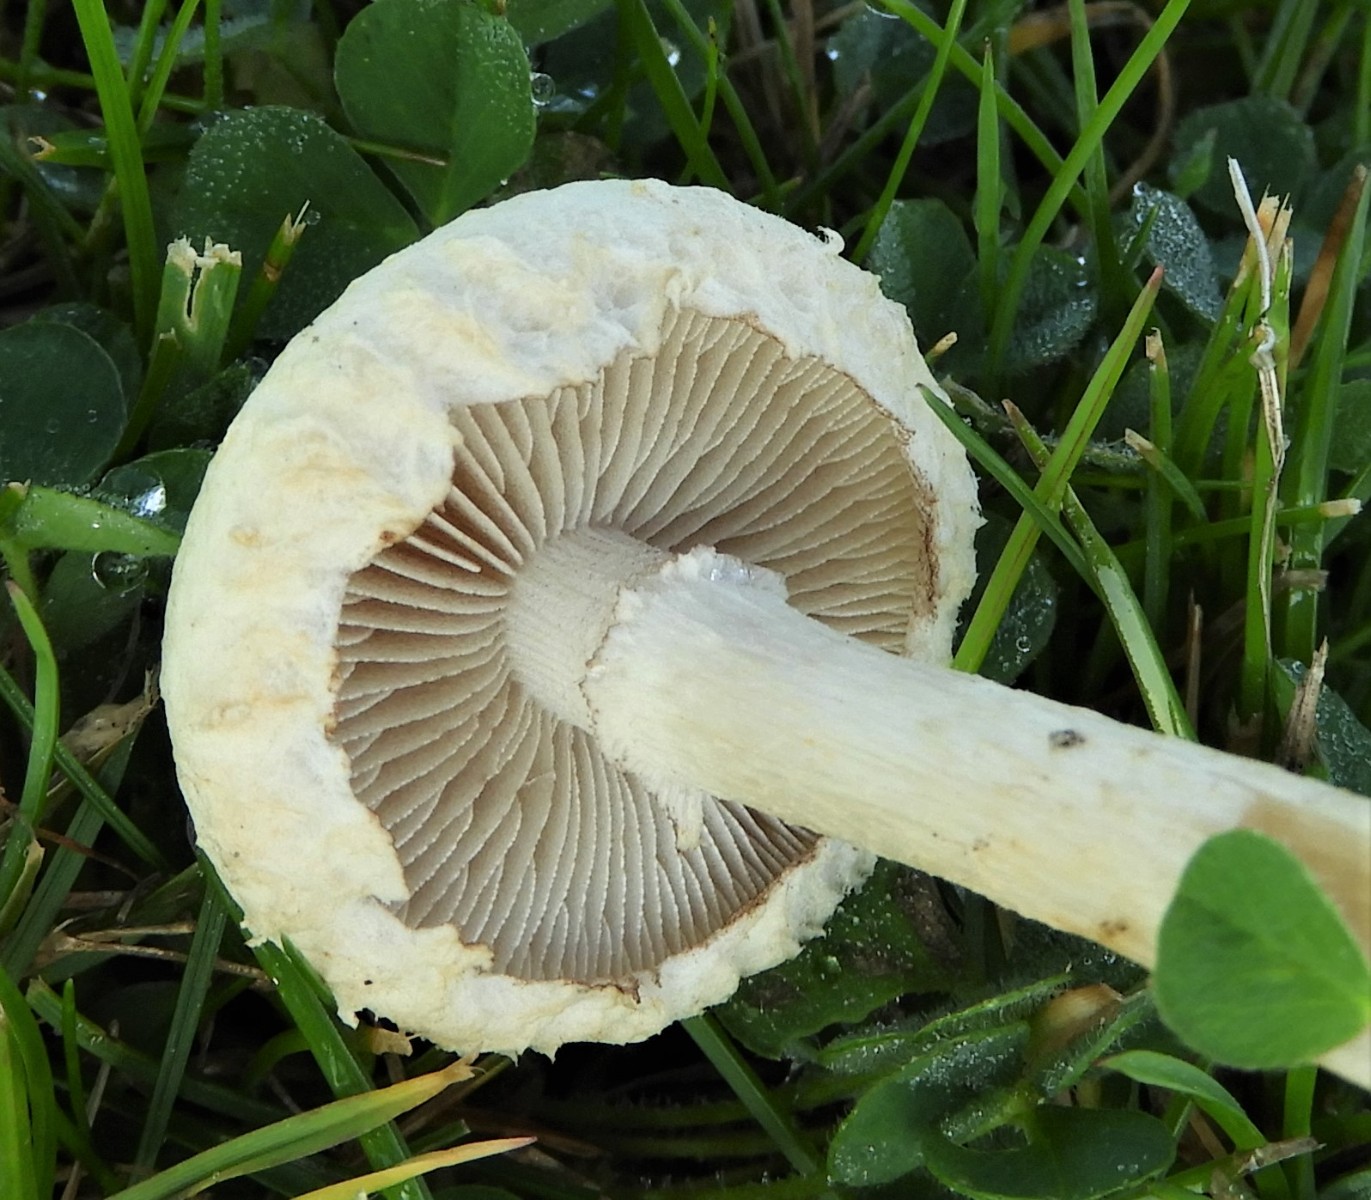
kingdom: Fungi
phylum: Basidiomycota
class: Agaricomycetes
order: Agaricales
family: Strophariaceae
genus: Agrocybe
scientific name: Agrocybe dura
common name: fastkødet agerhat
